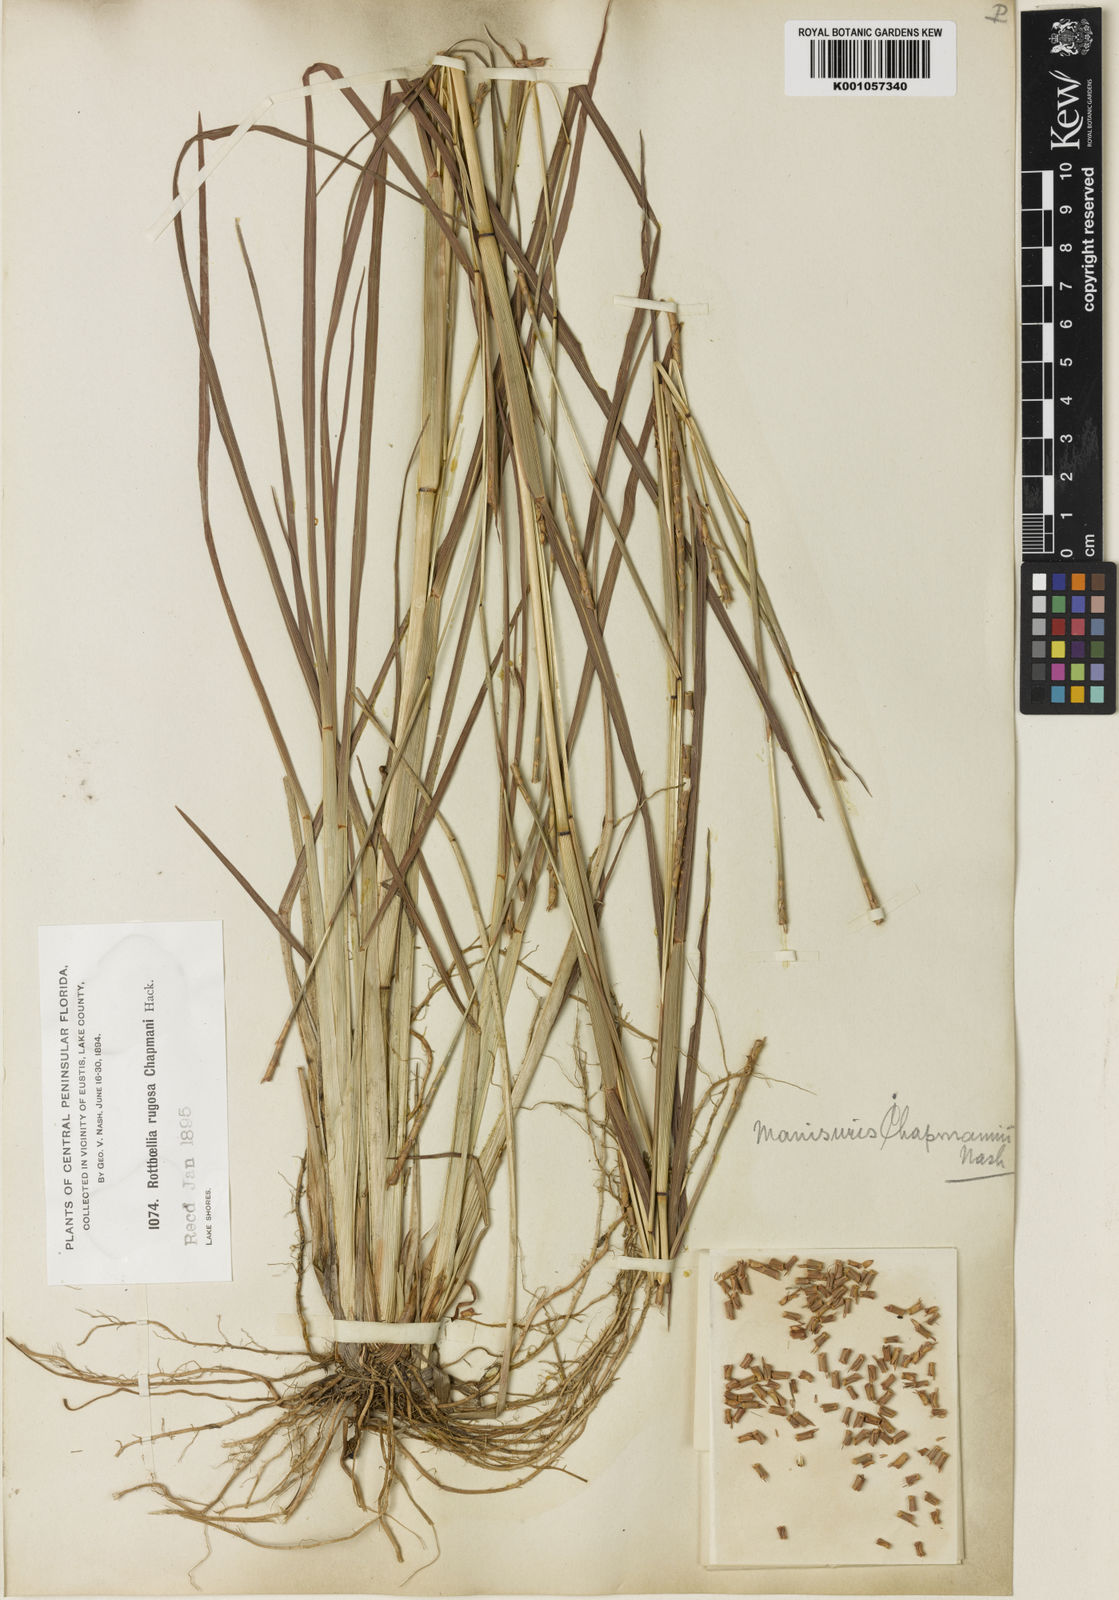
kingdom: Plantae
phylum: Tracheophyta
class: Liliopsida
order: Poales
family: Poaceae
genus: Rottboellia
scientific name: Rottboellia campestris
